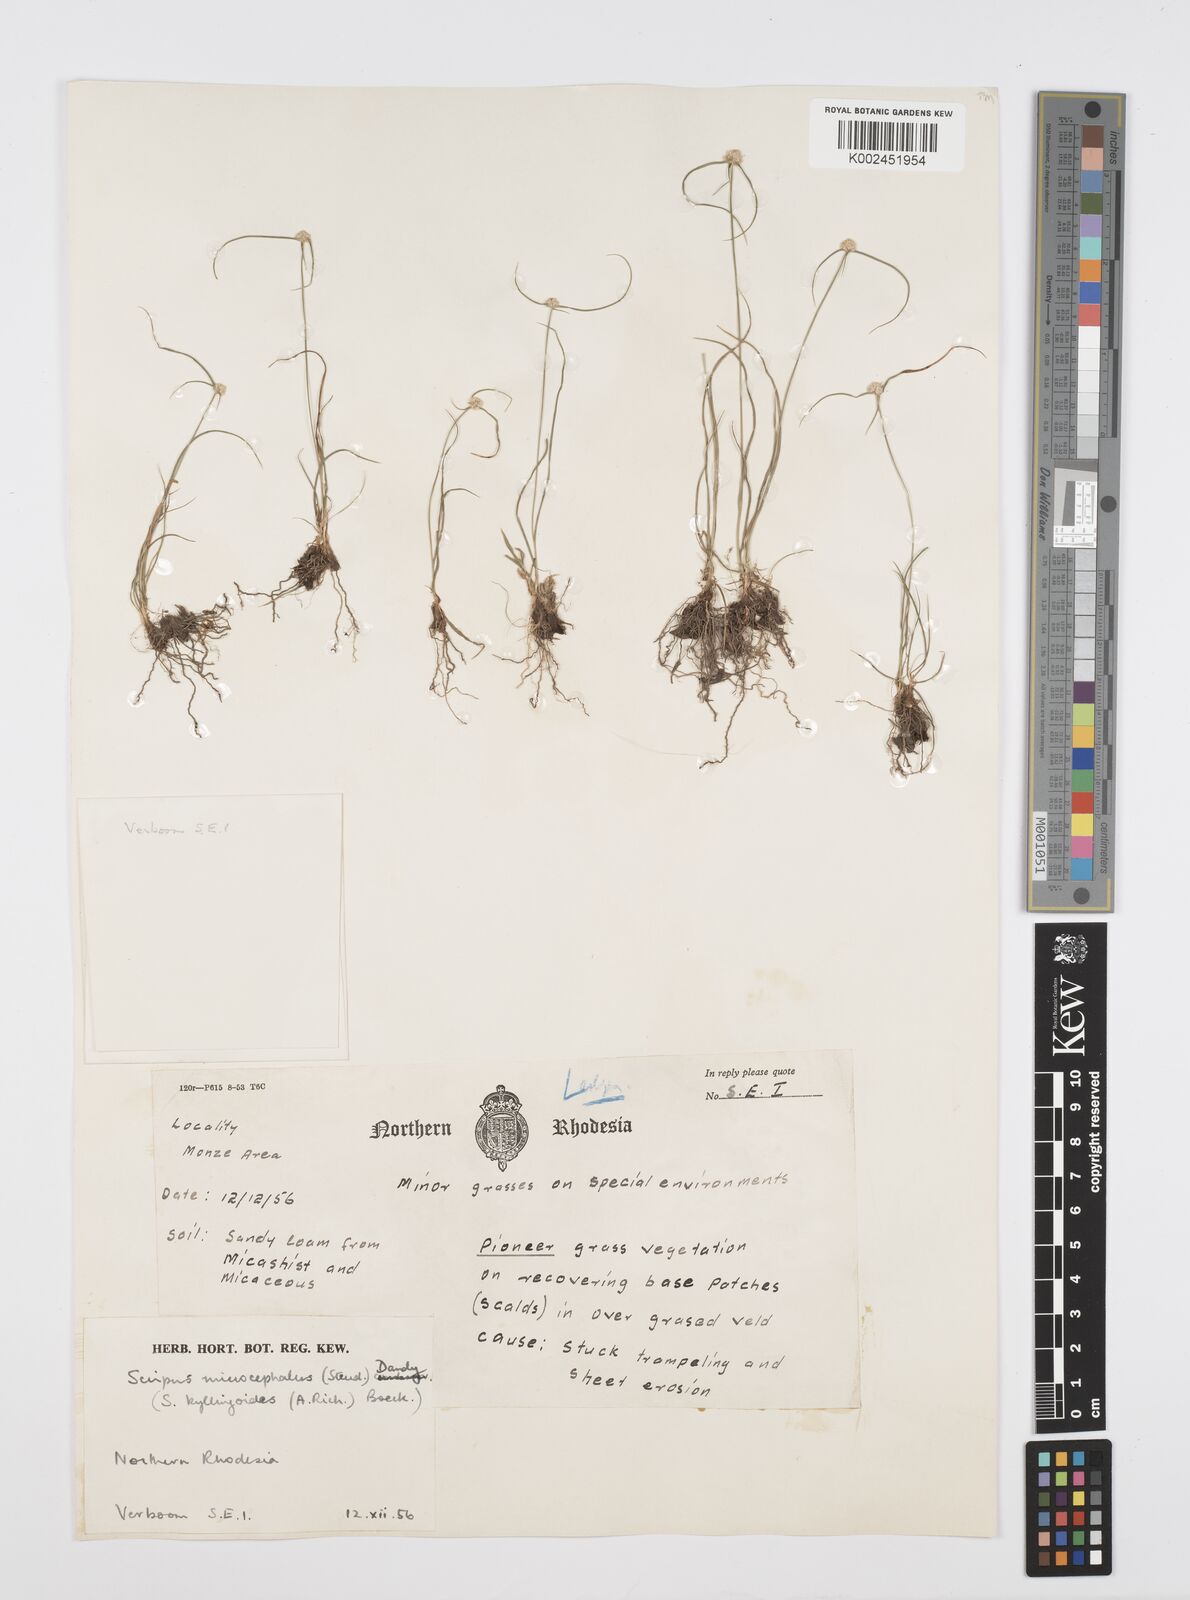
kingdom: Plantae
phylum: Tracheophyta
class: Liliopsida
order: Poales
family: Cyperaceae
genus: Cyperus
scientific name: Cyperus microcephalus
